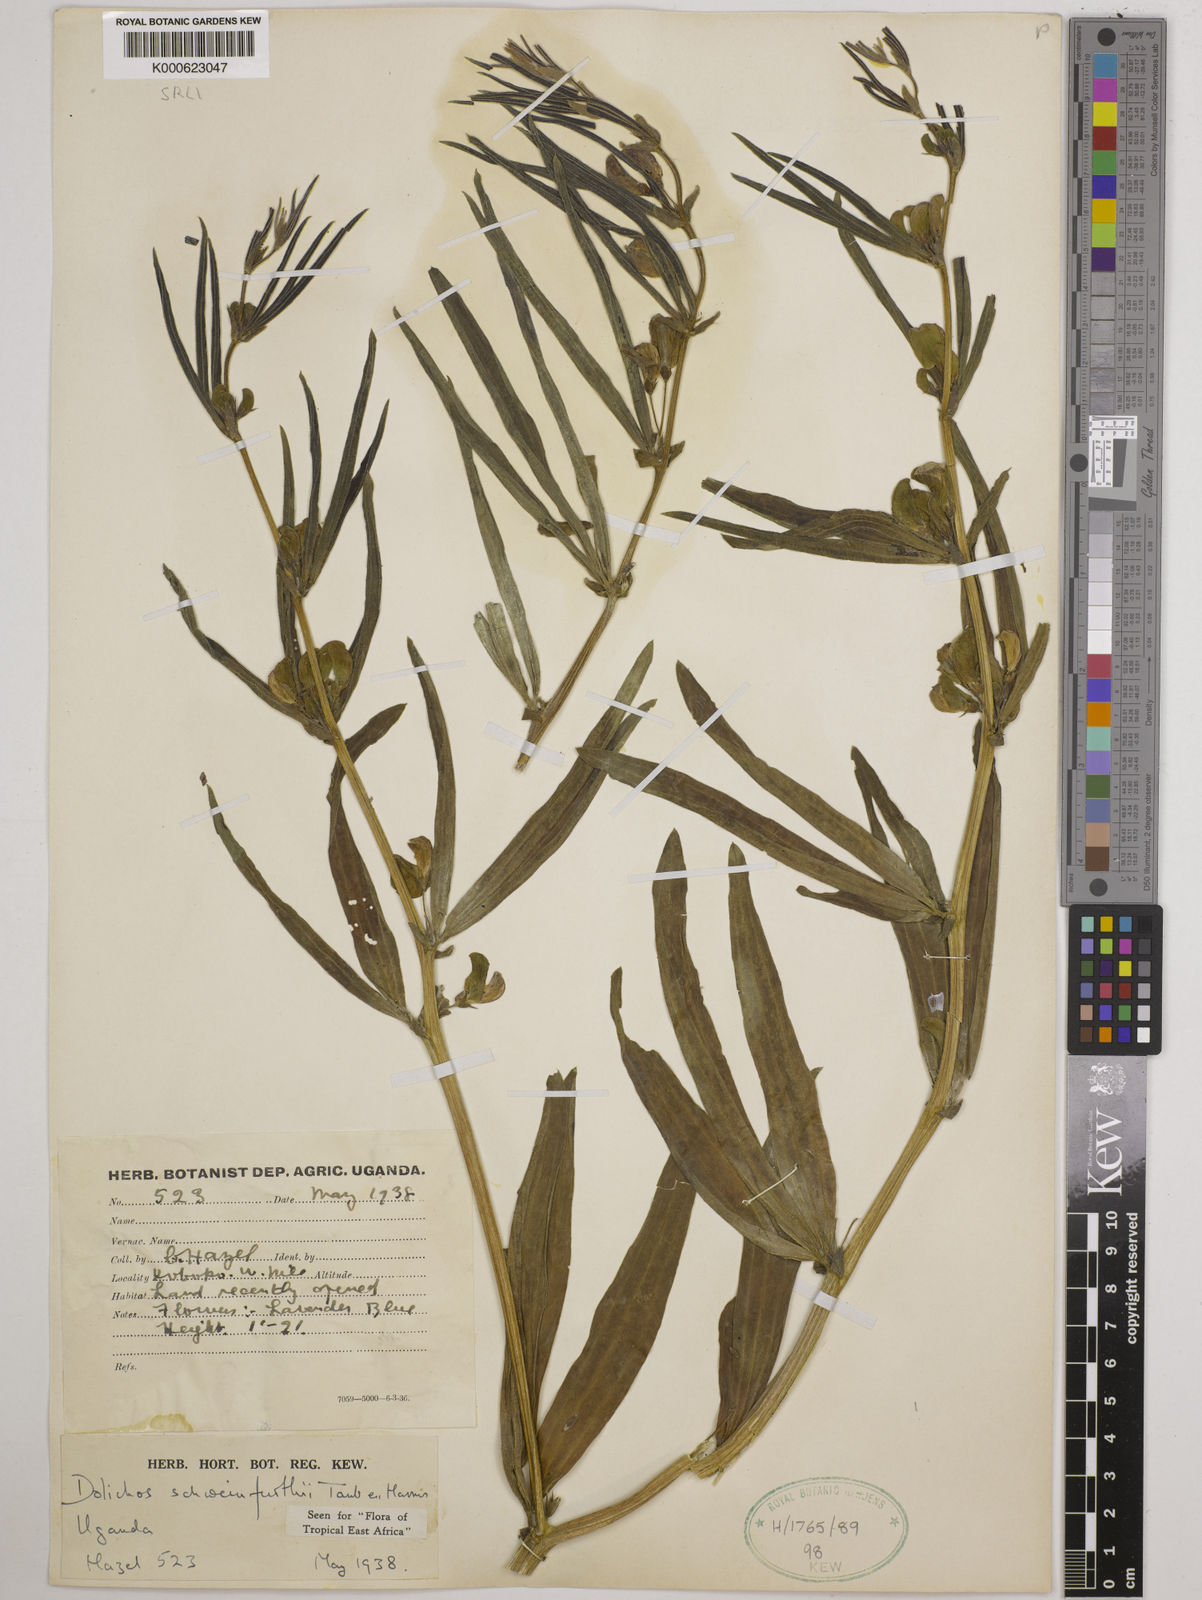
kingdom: Plantae
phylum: Tracheophyta
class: Magnoliopsida
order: Fabales
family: Fabaceae
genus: Dolichos
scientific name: Dolichos
